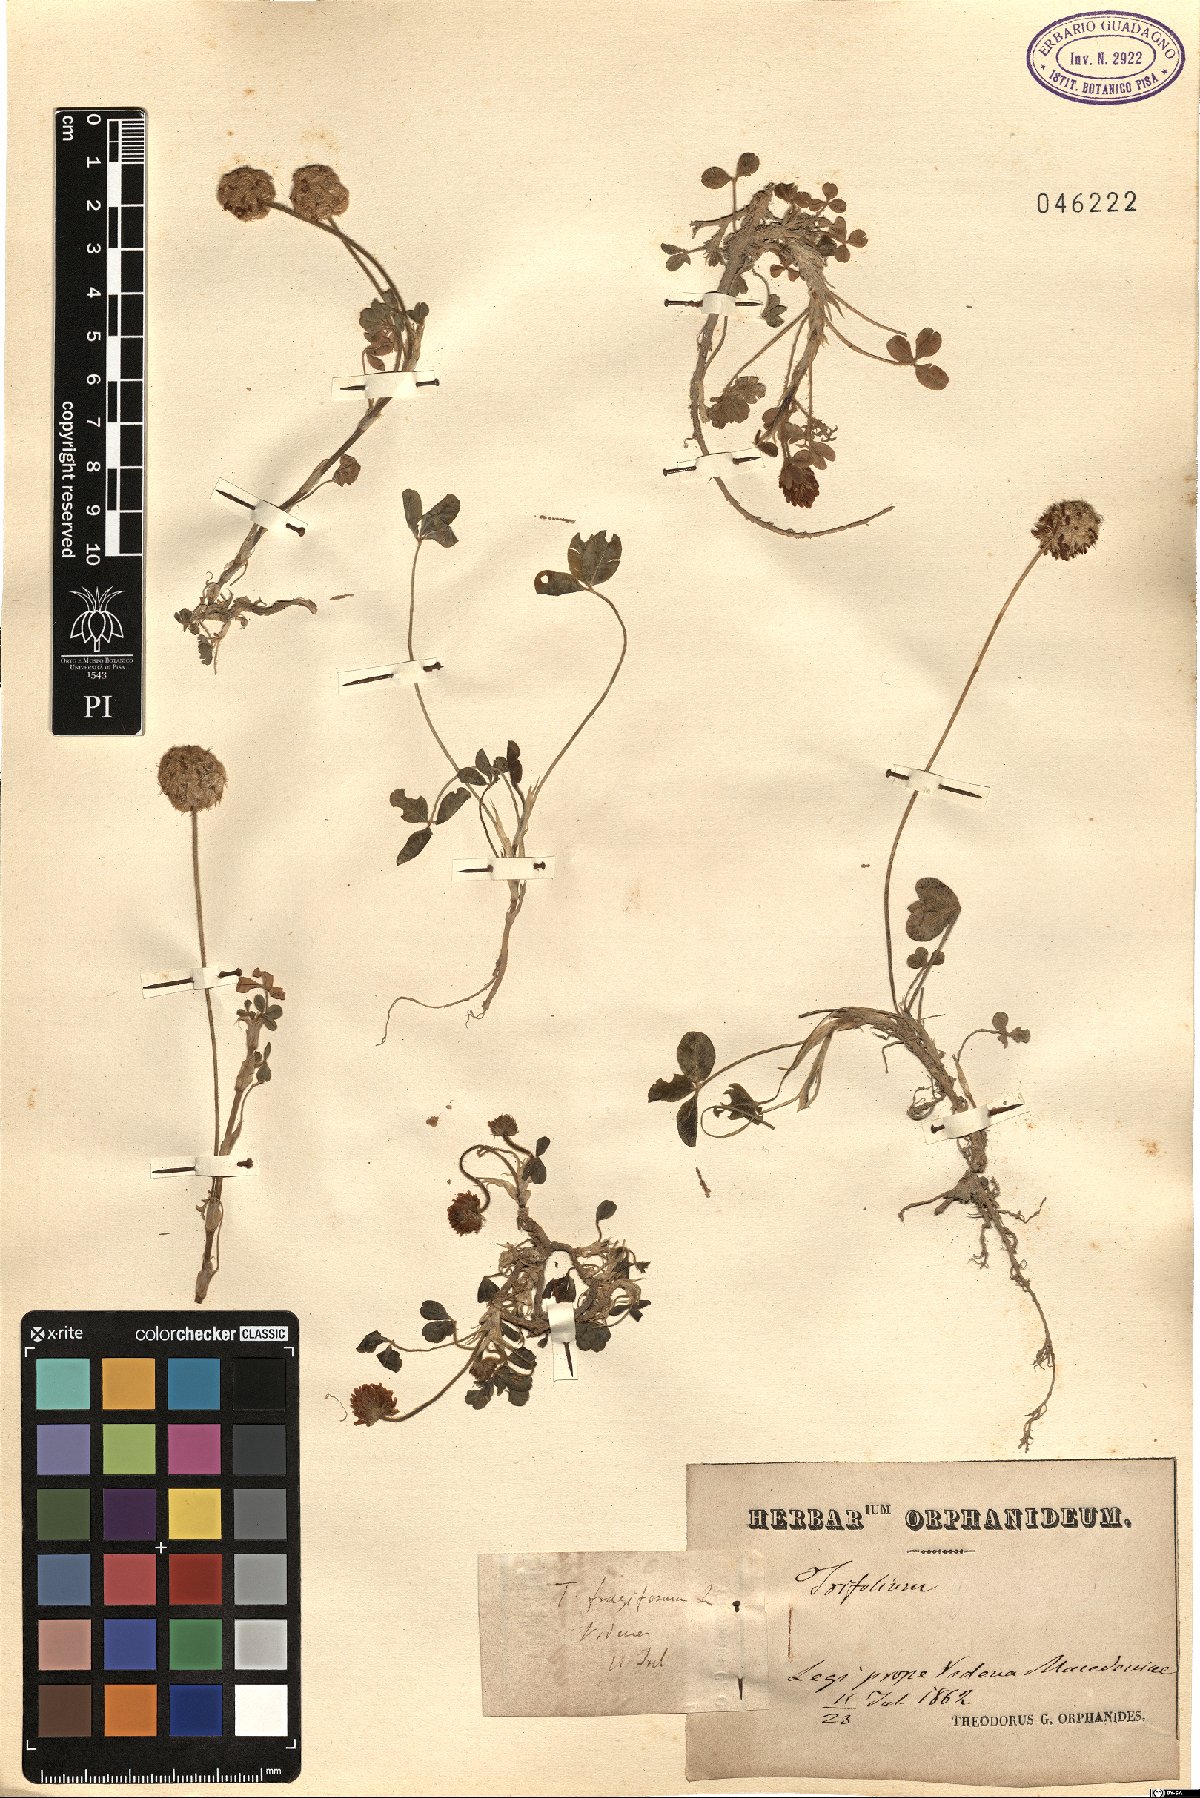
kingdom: Plantae
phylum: Tracheophyta
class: Magnoliopsida
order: Fabales
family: Fabaceae
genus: Trifolium
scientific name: Trifolium fragiferum
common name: Strawberry clover
